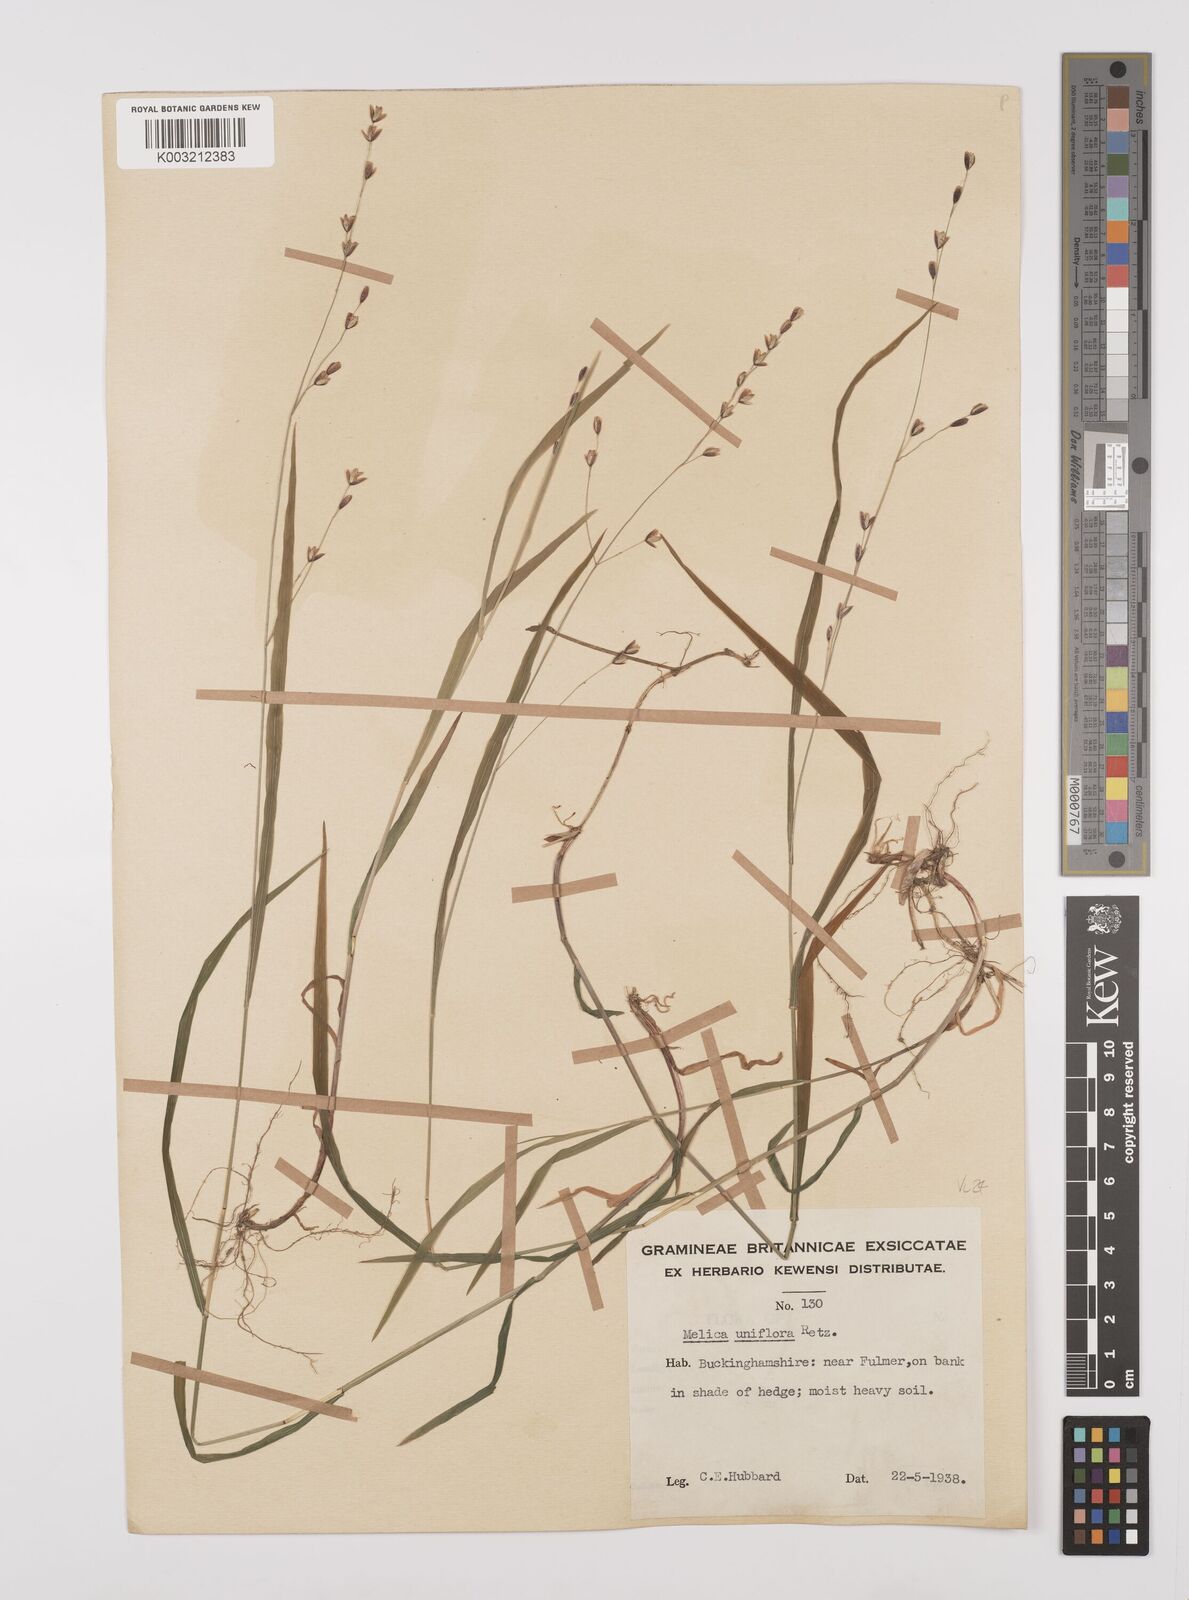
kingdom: Plantae
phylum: Tracheophyta
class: Liliopsida
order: Poales
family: Poaceae
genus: Melica
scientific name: Melica uniflora
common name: Wood melick
